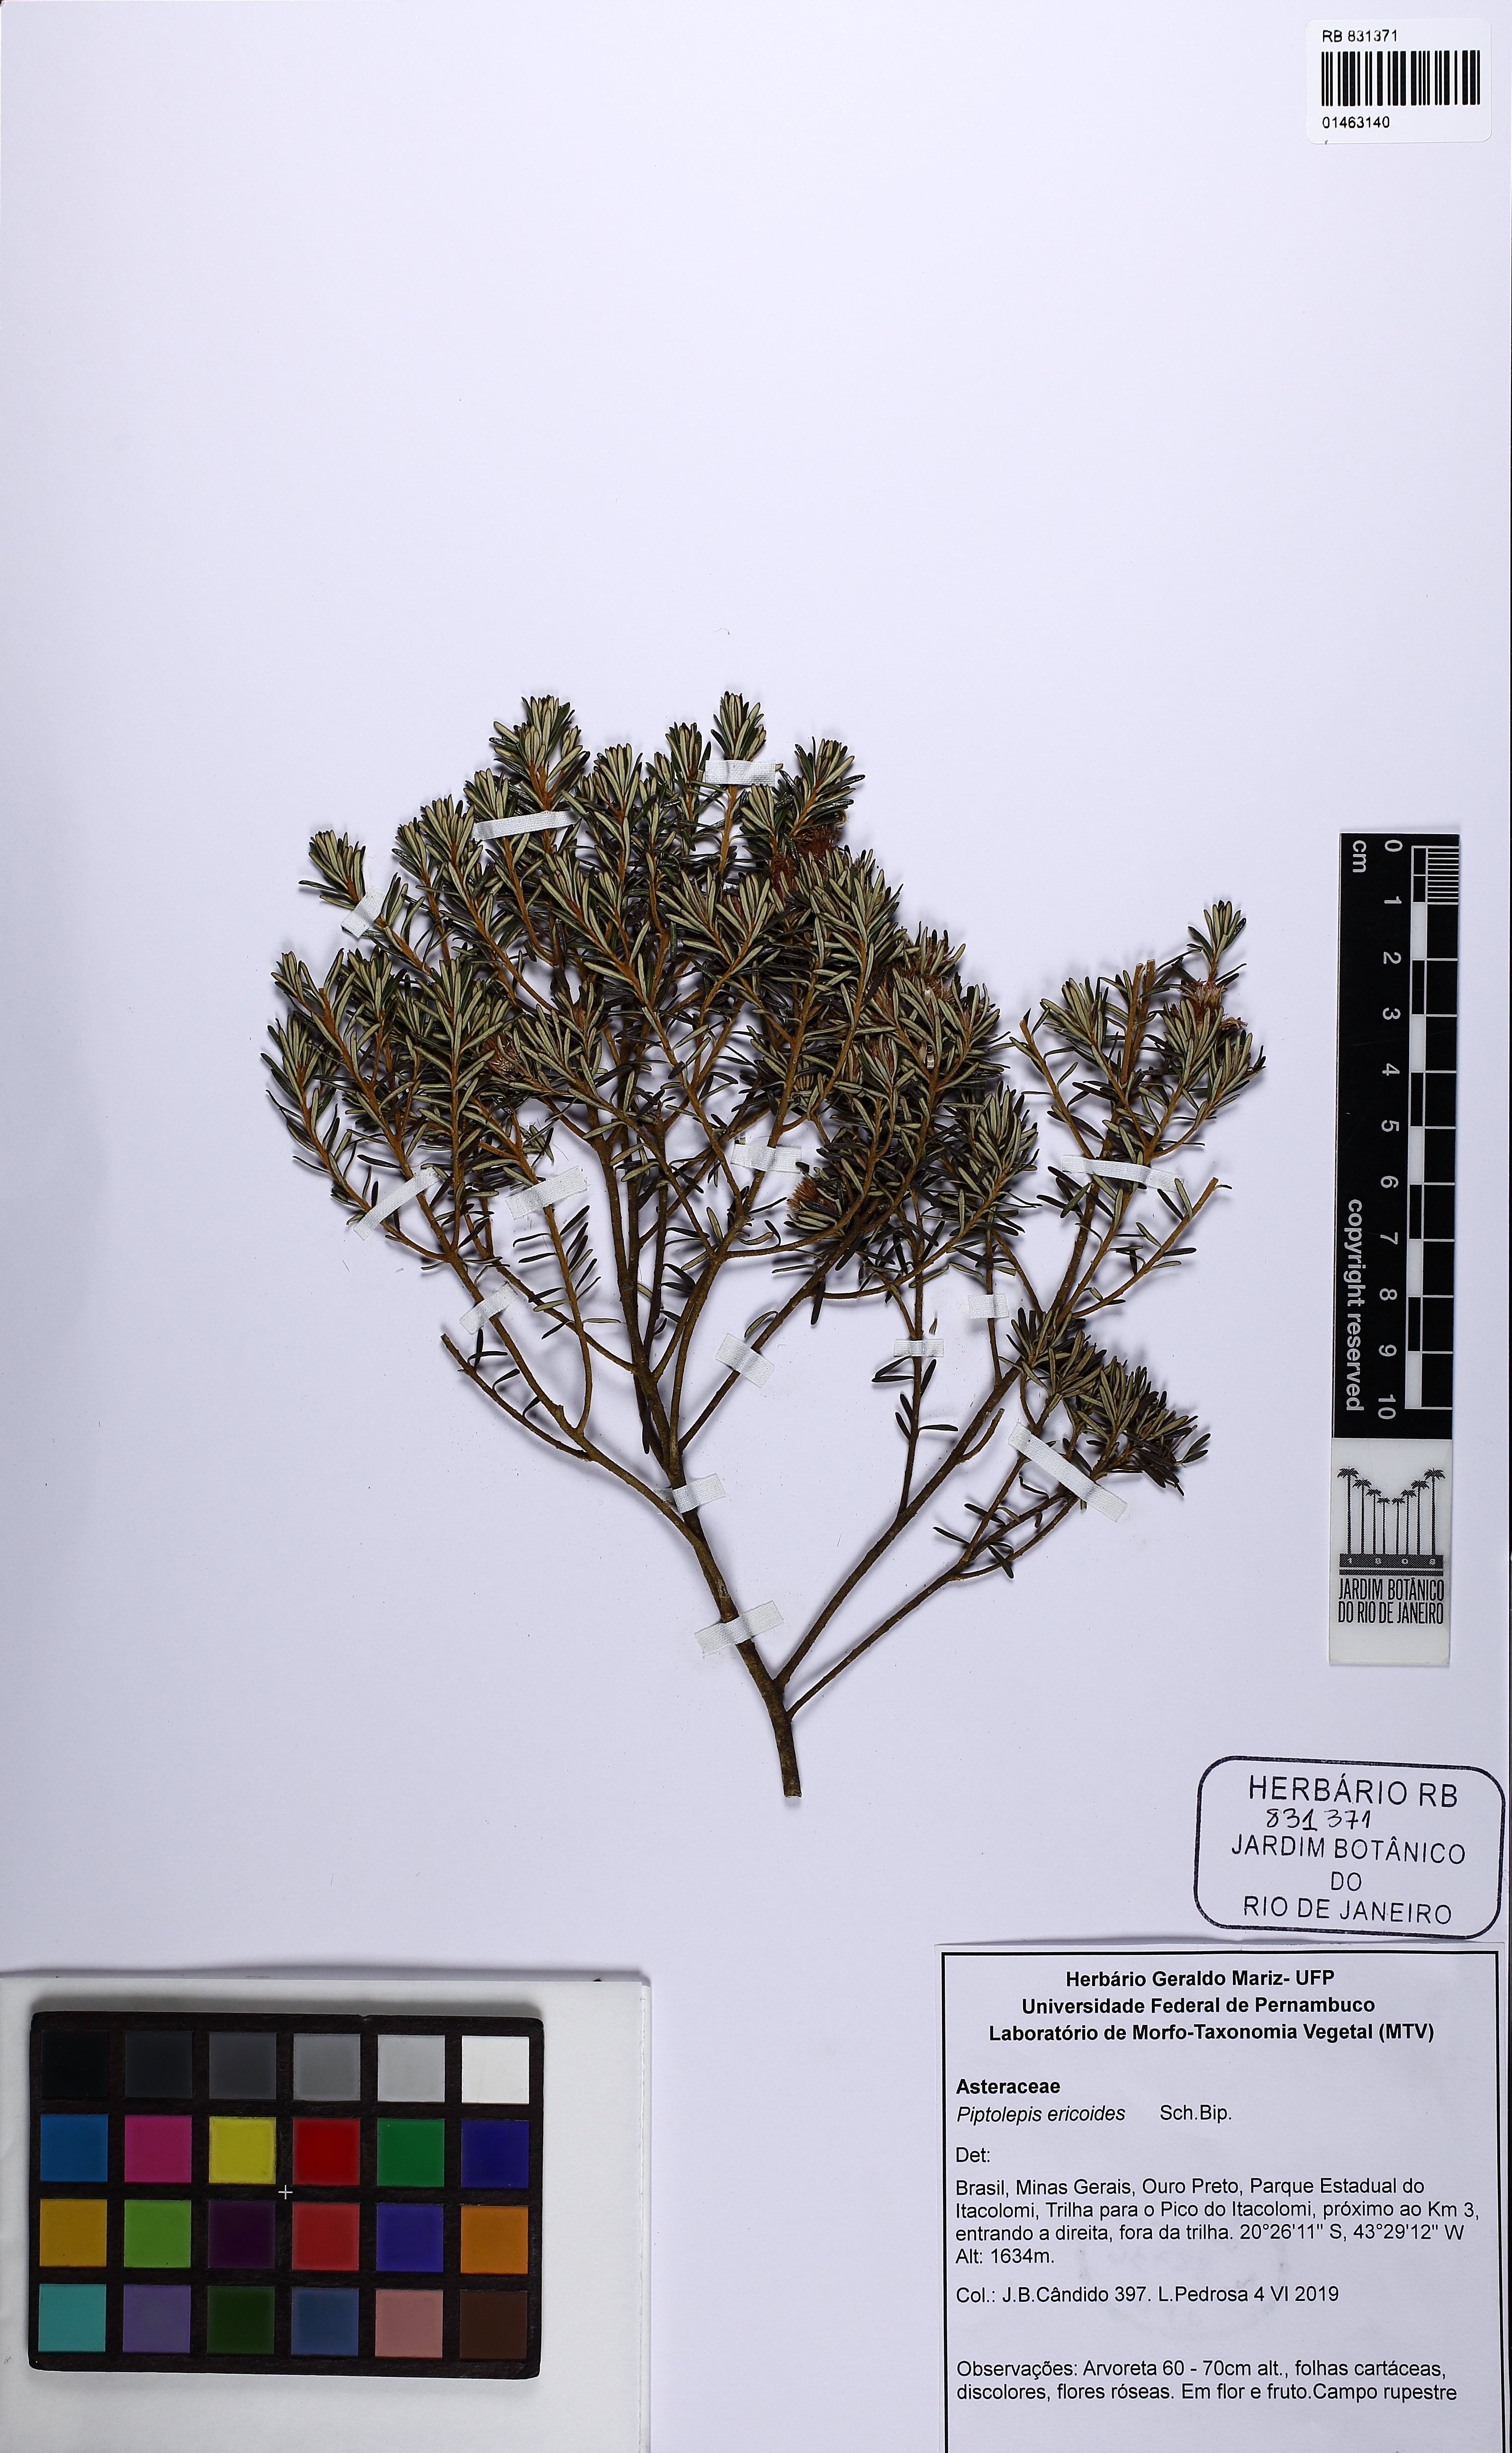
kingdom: Plantae
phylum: Tracheophyta
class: Magnoliopsida
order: Asterales
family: Asteraceae
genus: Piptolepis
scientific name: Piptolepis ericoides
